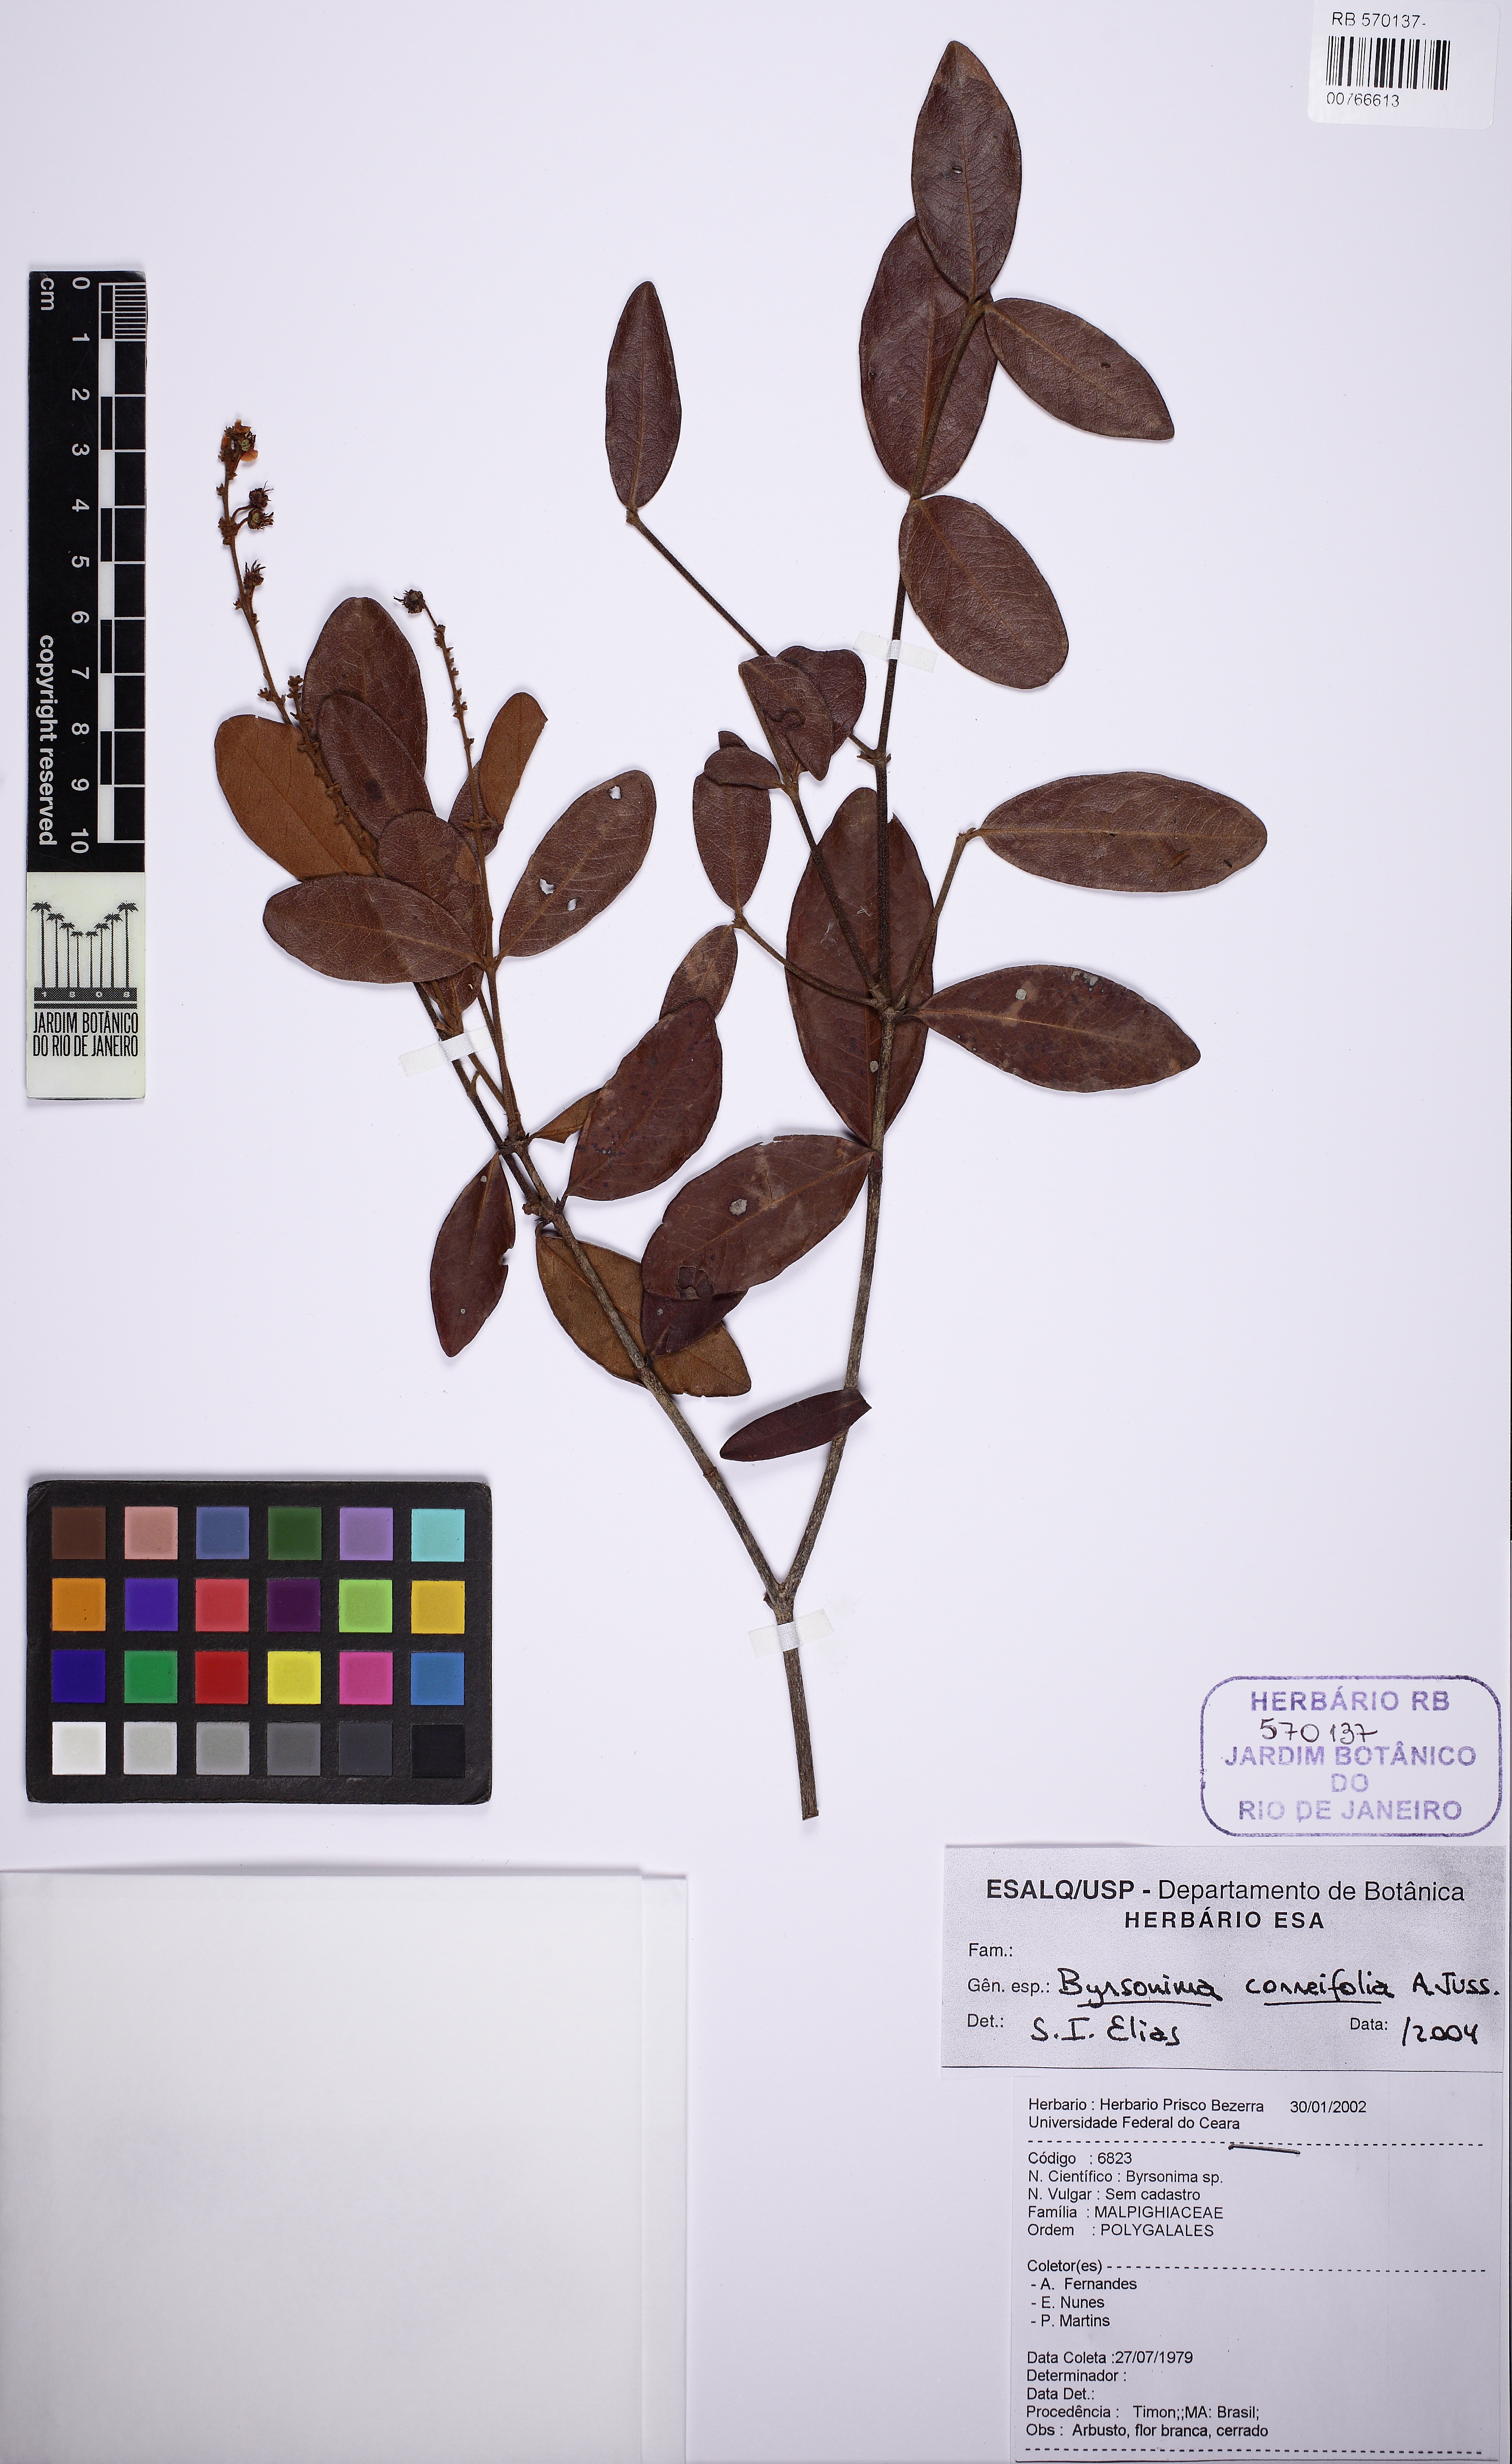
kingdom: Plantae
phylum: Tracheophyta
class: Magnoliopsida
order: Malpighiales
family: Malpighiaceae
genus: Byrsonima
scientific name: Byrsonima correifolia
